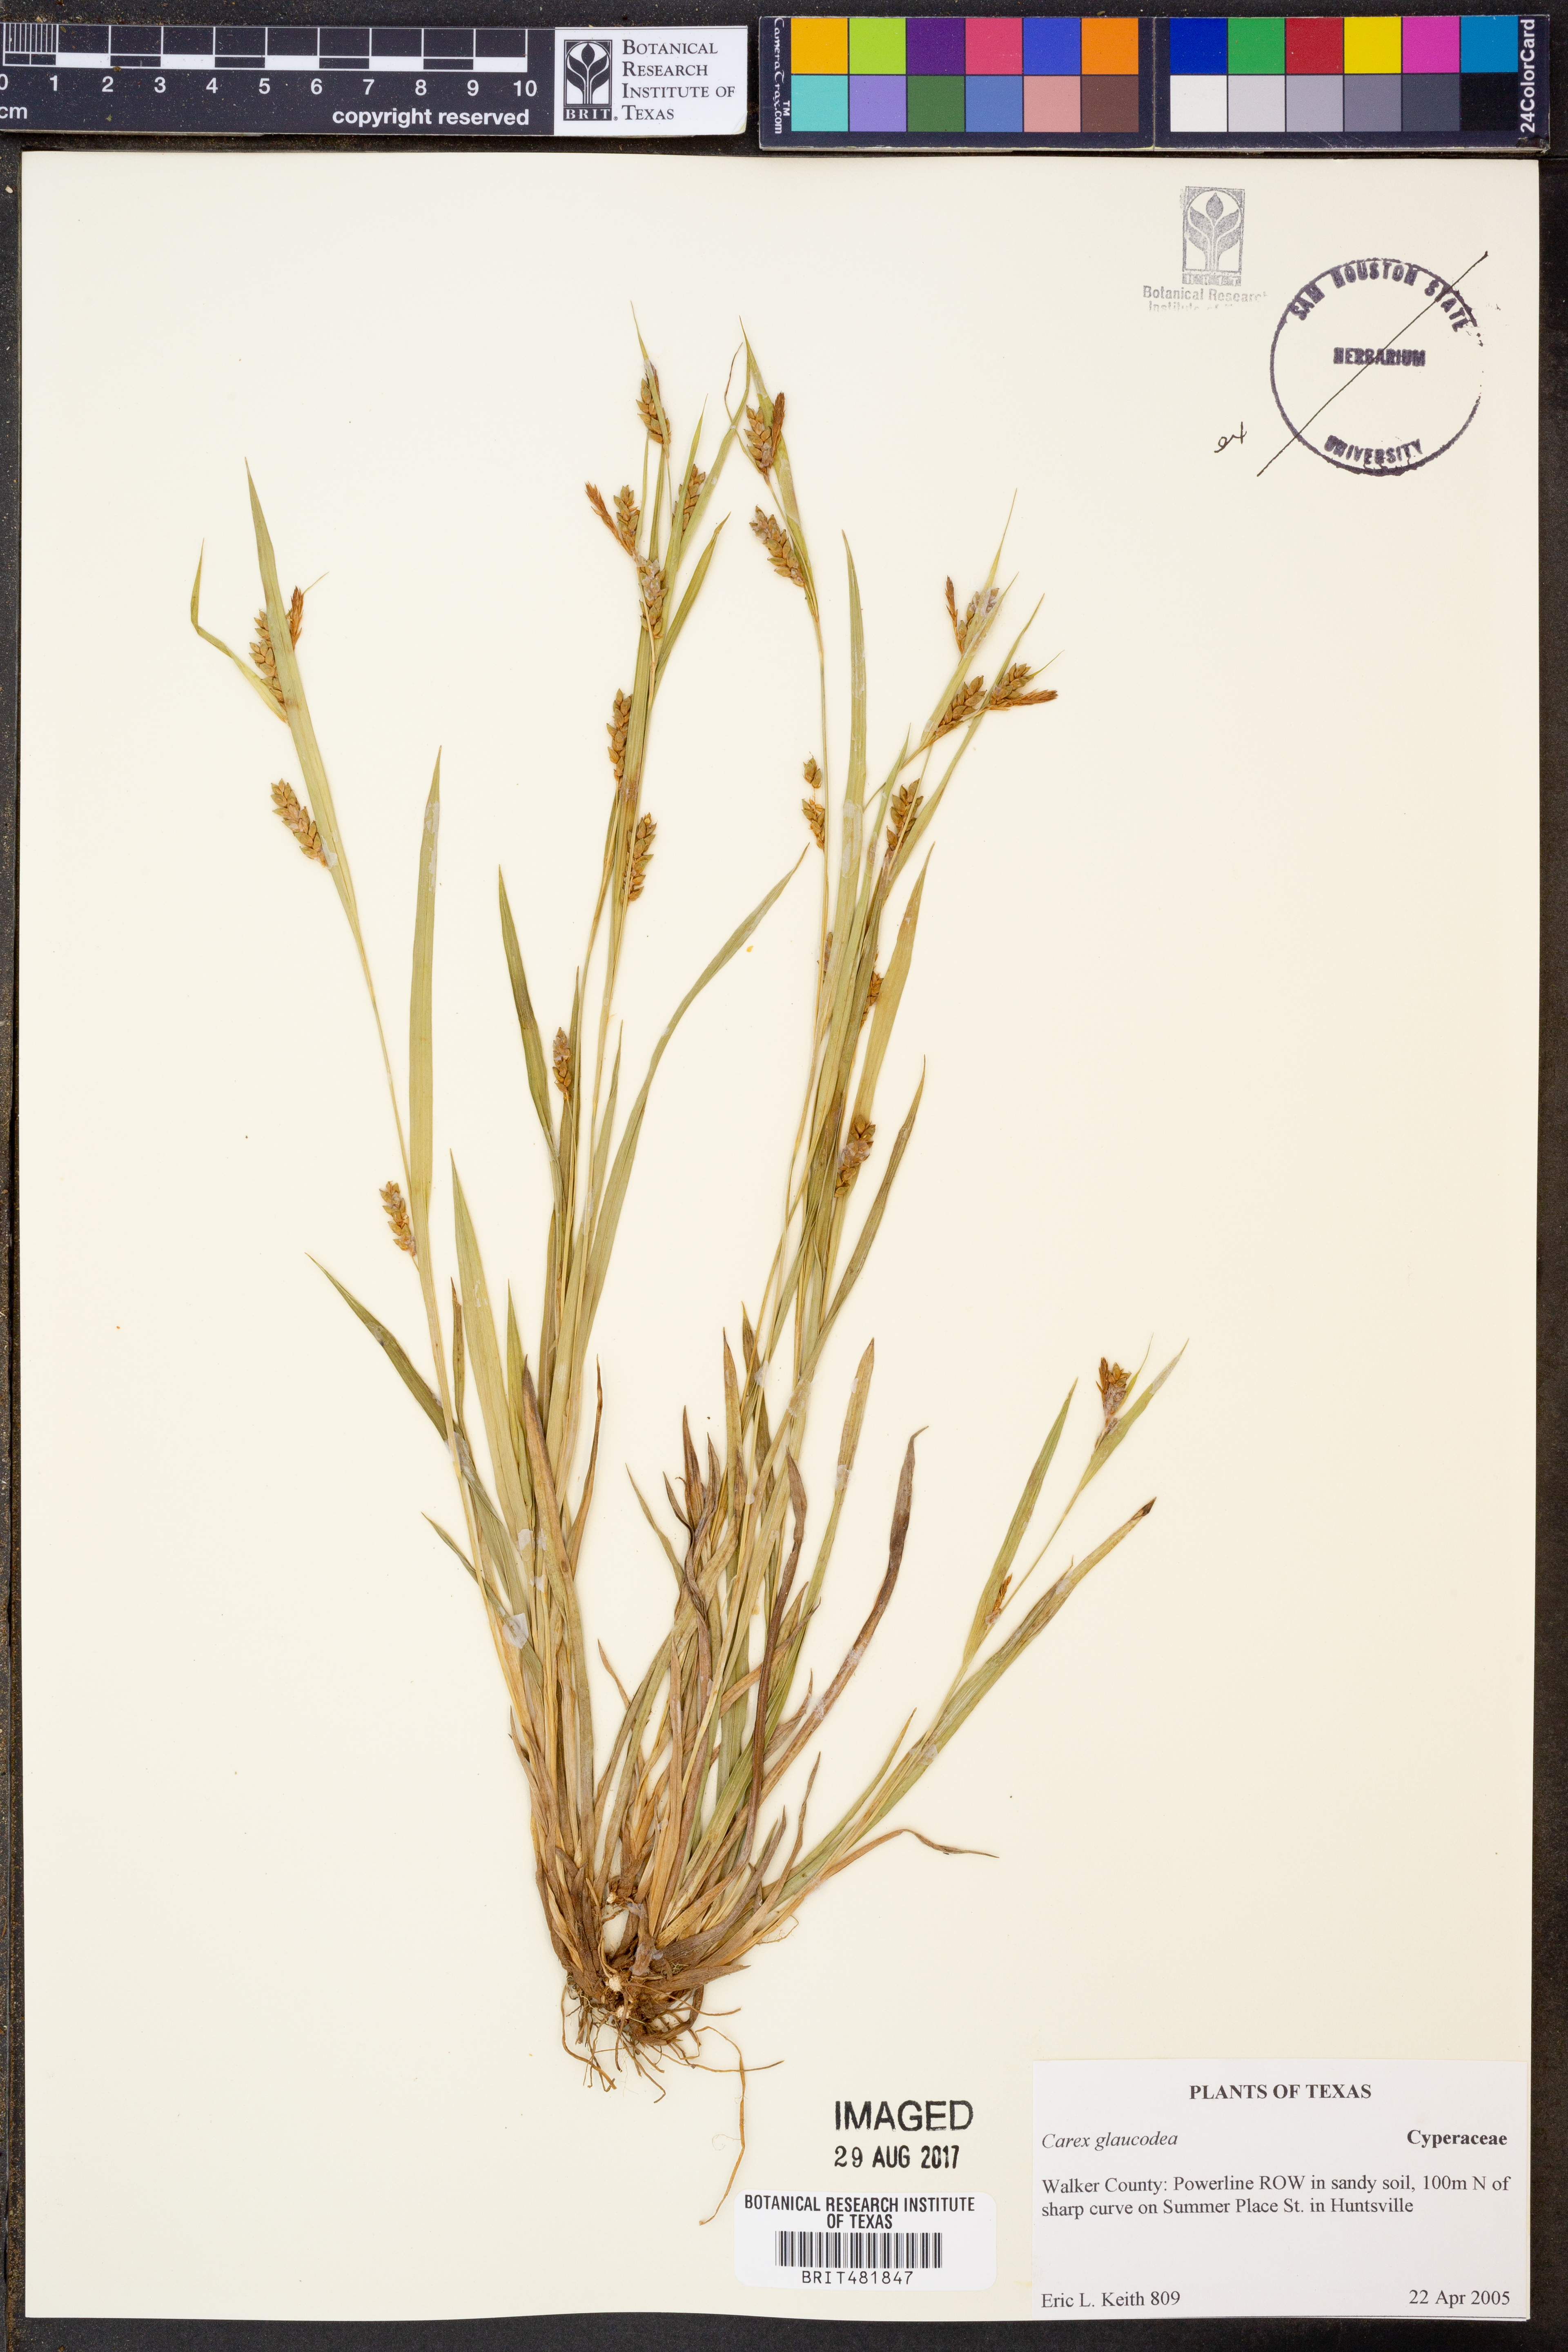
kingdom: Plantae
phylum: Tracheophyta
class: Liliopsida
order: Poales
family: Cyperaceae
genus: Carex
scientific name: Carex glaucodea
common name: Blue sedge
